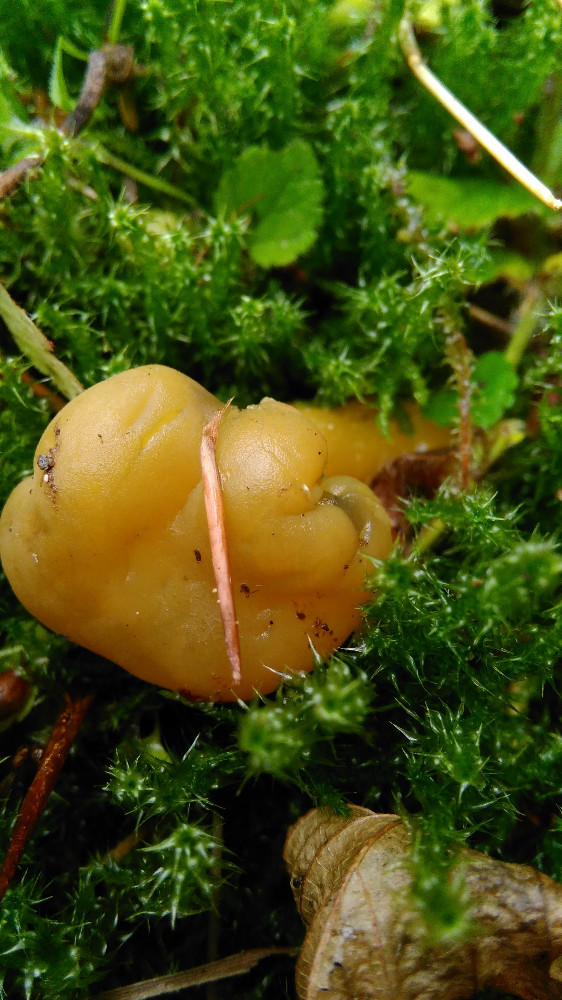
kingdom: Fungi
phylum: Ascomycota
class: Leotiomycetes
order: Leotiales
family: Leotiaceae
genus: Leotia
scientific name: Leotia lubrica
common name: ravsvamp
